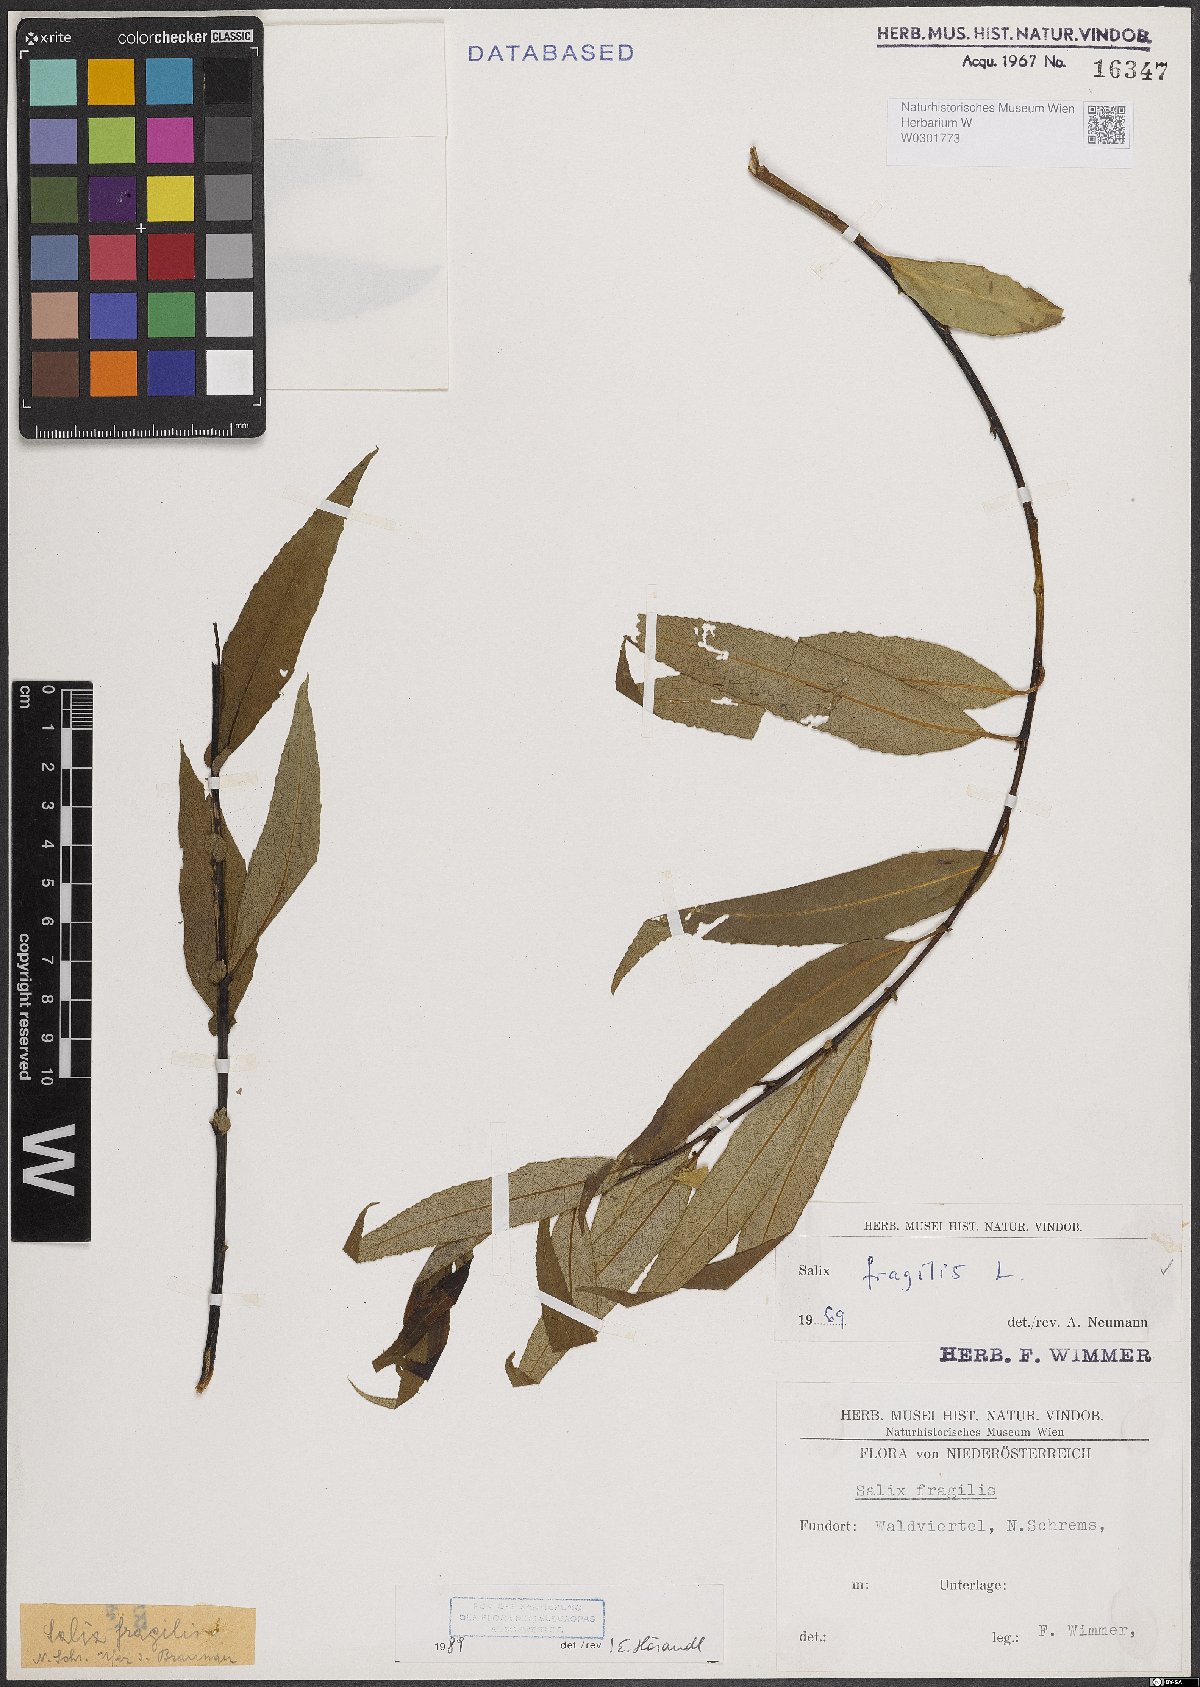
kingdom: Plantae
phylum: Tracheophyta
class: Magnoliopsida
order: Malpighiales
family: Salicaceae
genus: Salix
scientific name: Salix fragilis
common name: Crack willow
